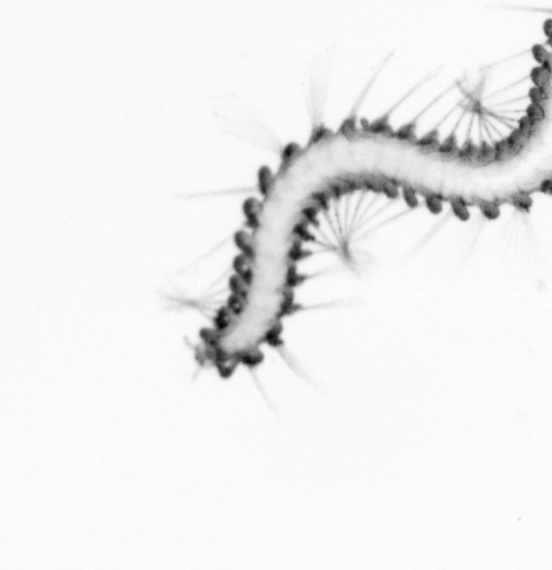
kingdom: Animalia
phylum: Annelida
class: Polychaeta
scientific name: Polychaeta
